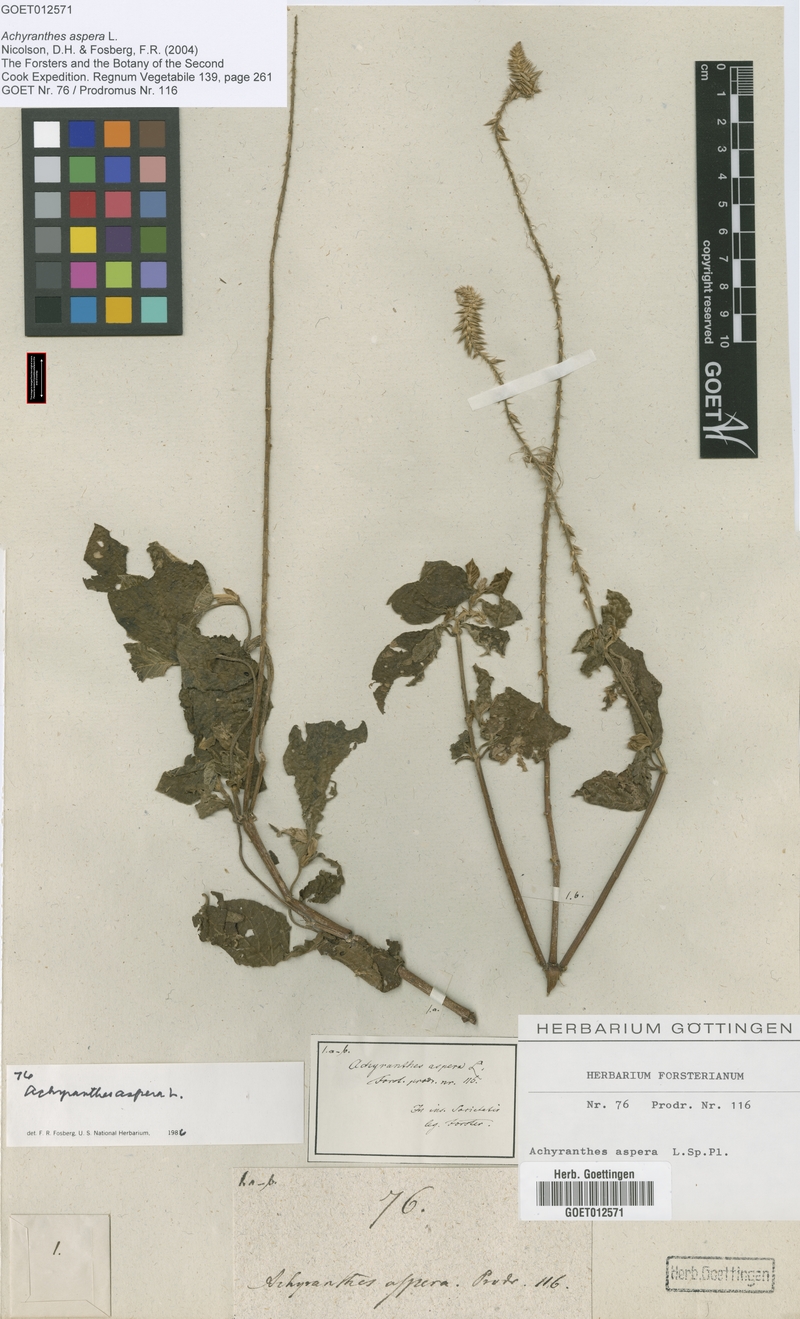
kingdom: Plantae
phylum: Tracheophyta
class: Magnoliopsida
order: Caryophyllales
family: Amaranthaceae
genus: Achyranthes
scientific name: Achyranthes aspera
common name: Devil's horsewhip
